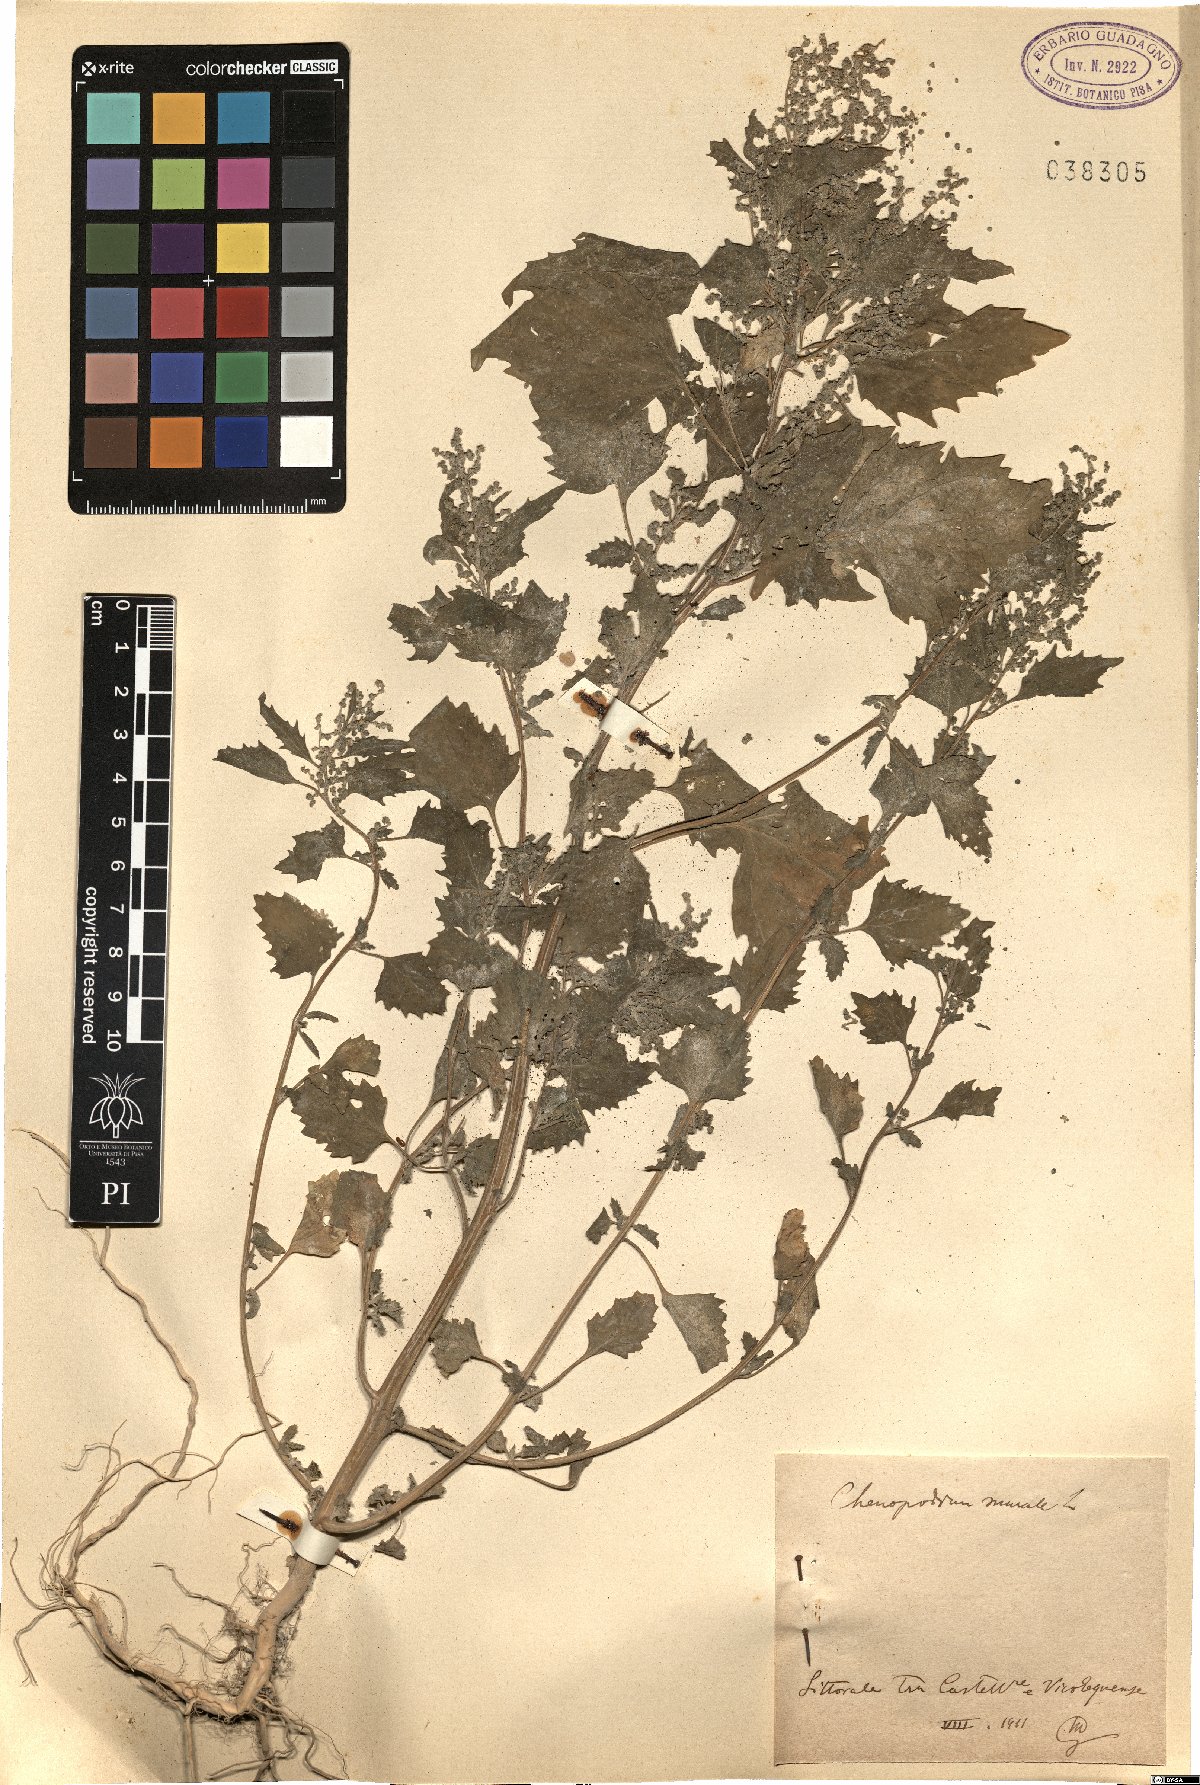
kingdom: Plantae
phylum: Tracheophyta
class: Magnoliopsida
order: Caryophyllales
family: Amaranthaceae
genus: Chenopodiastrum
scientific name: Chenopodiastrum murale
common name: Sowbane
